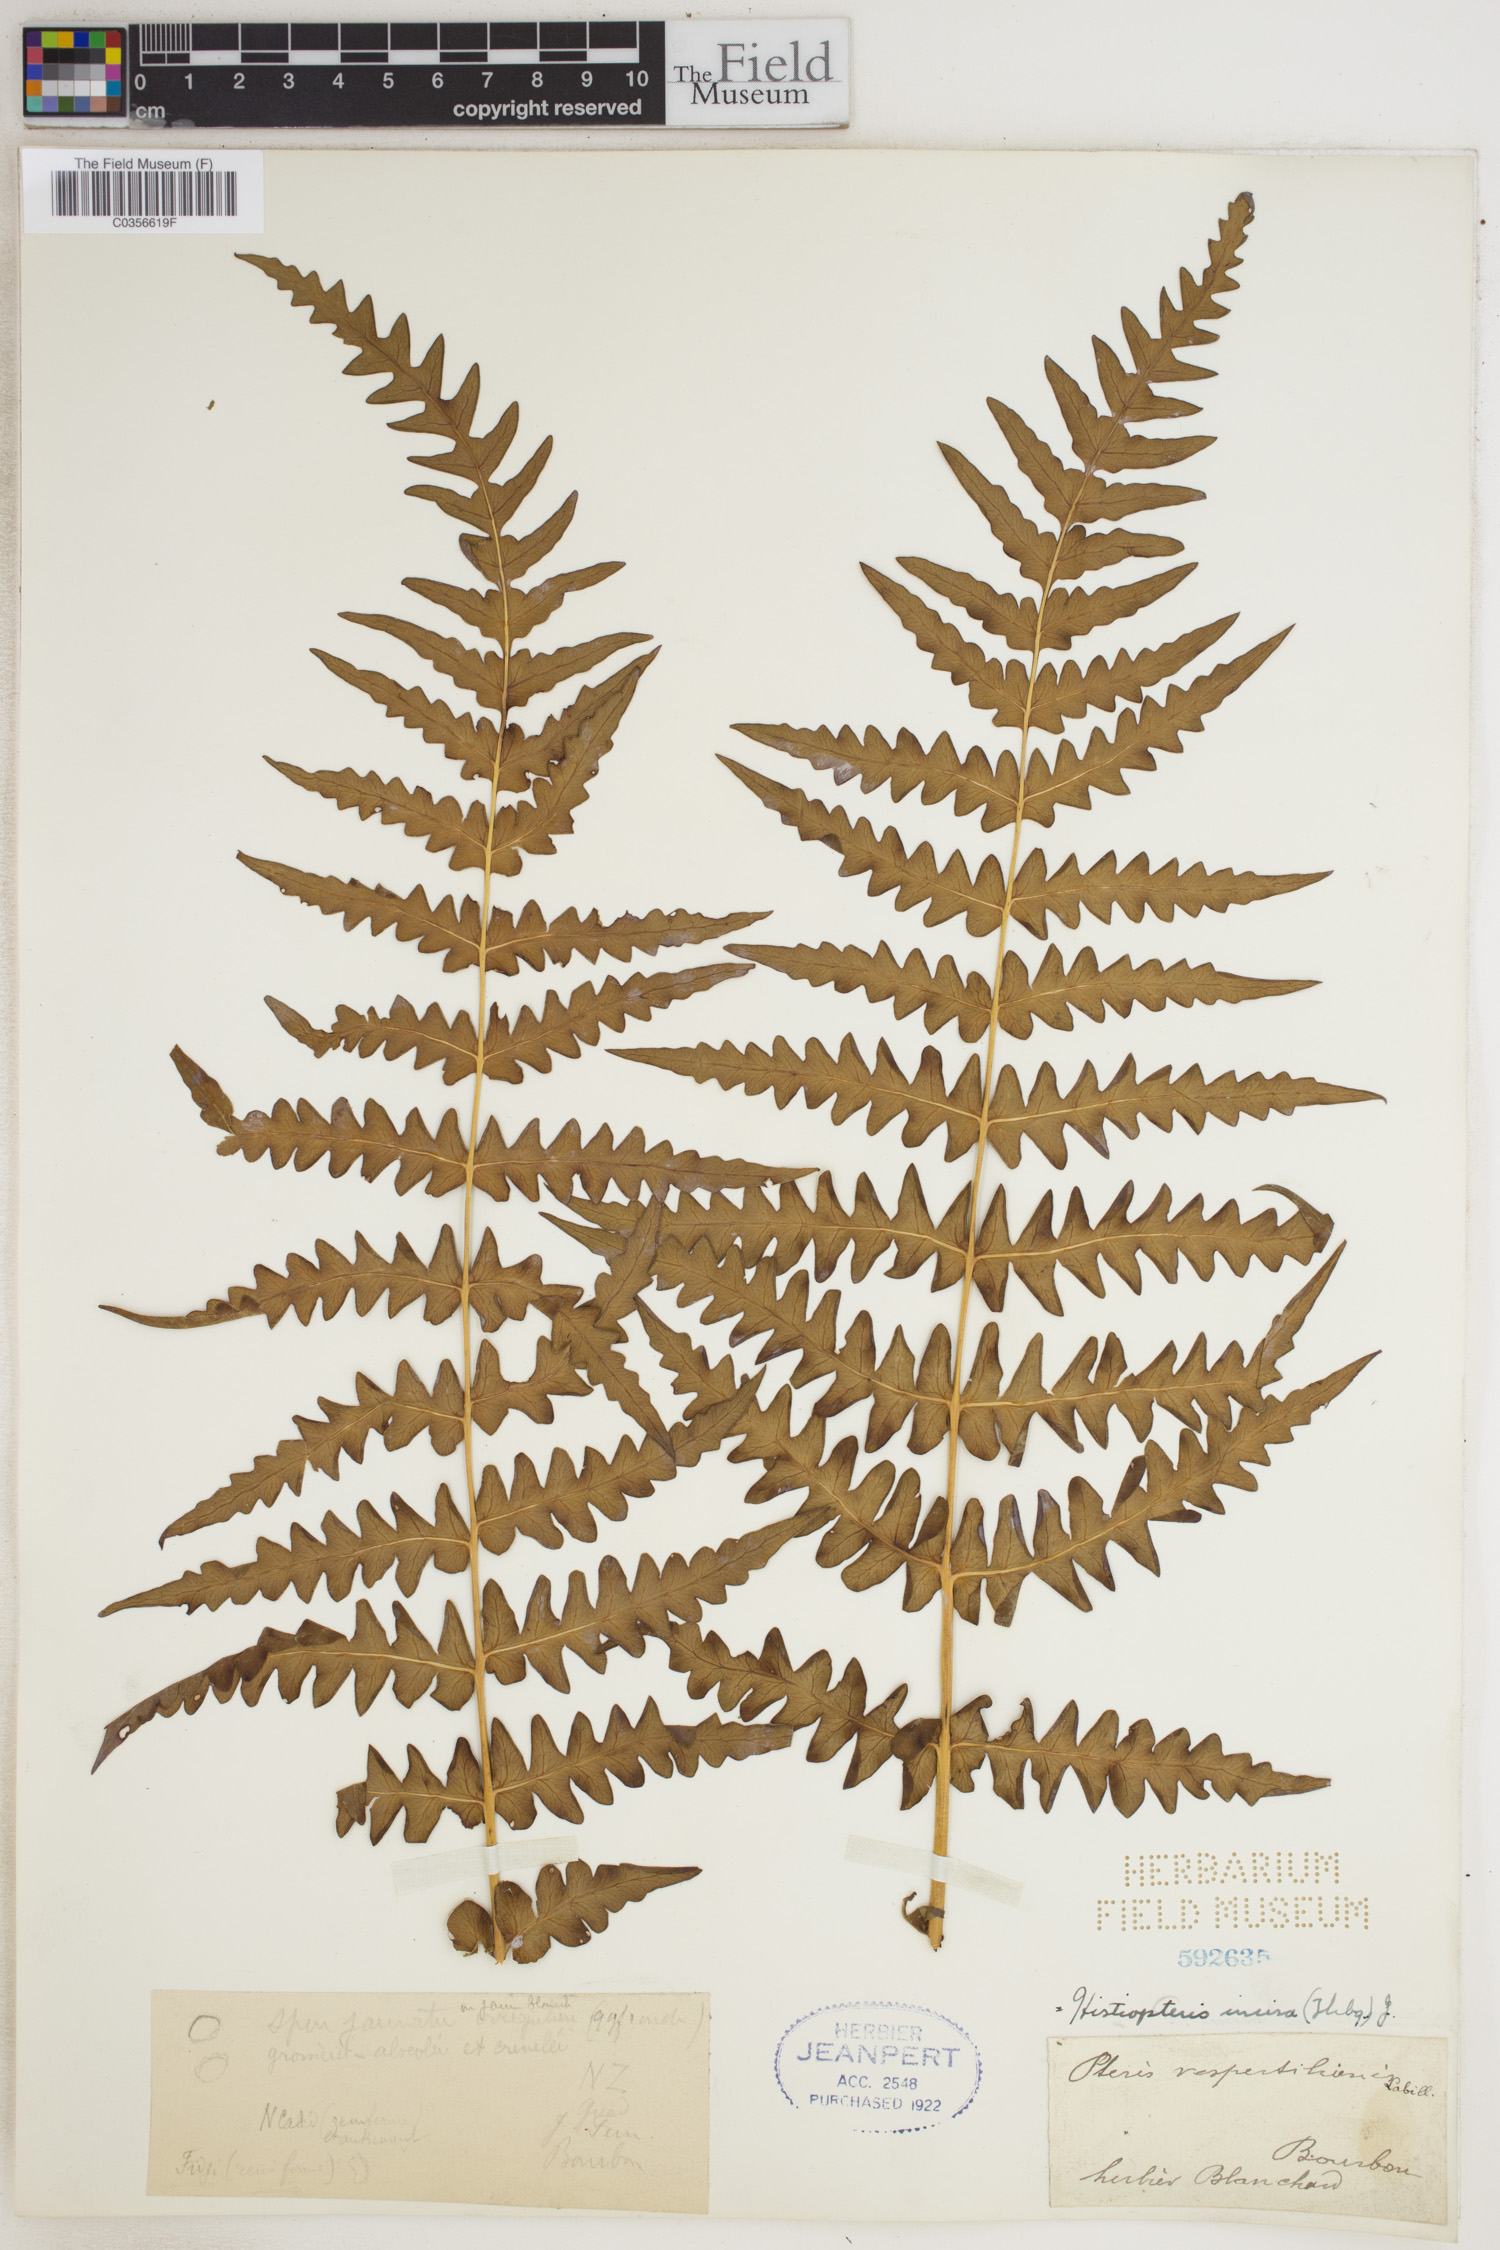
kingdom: Plantae
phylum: Tracheophyta
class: Polypodiopsida
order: Polypodiales
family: Dennstaedtiaceae
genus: Histiopteris
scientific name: Histiopteris incisa
